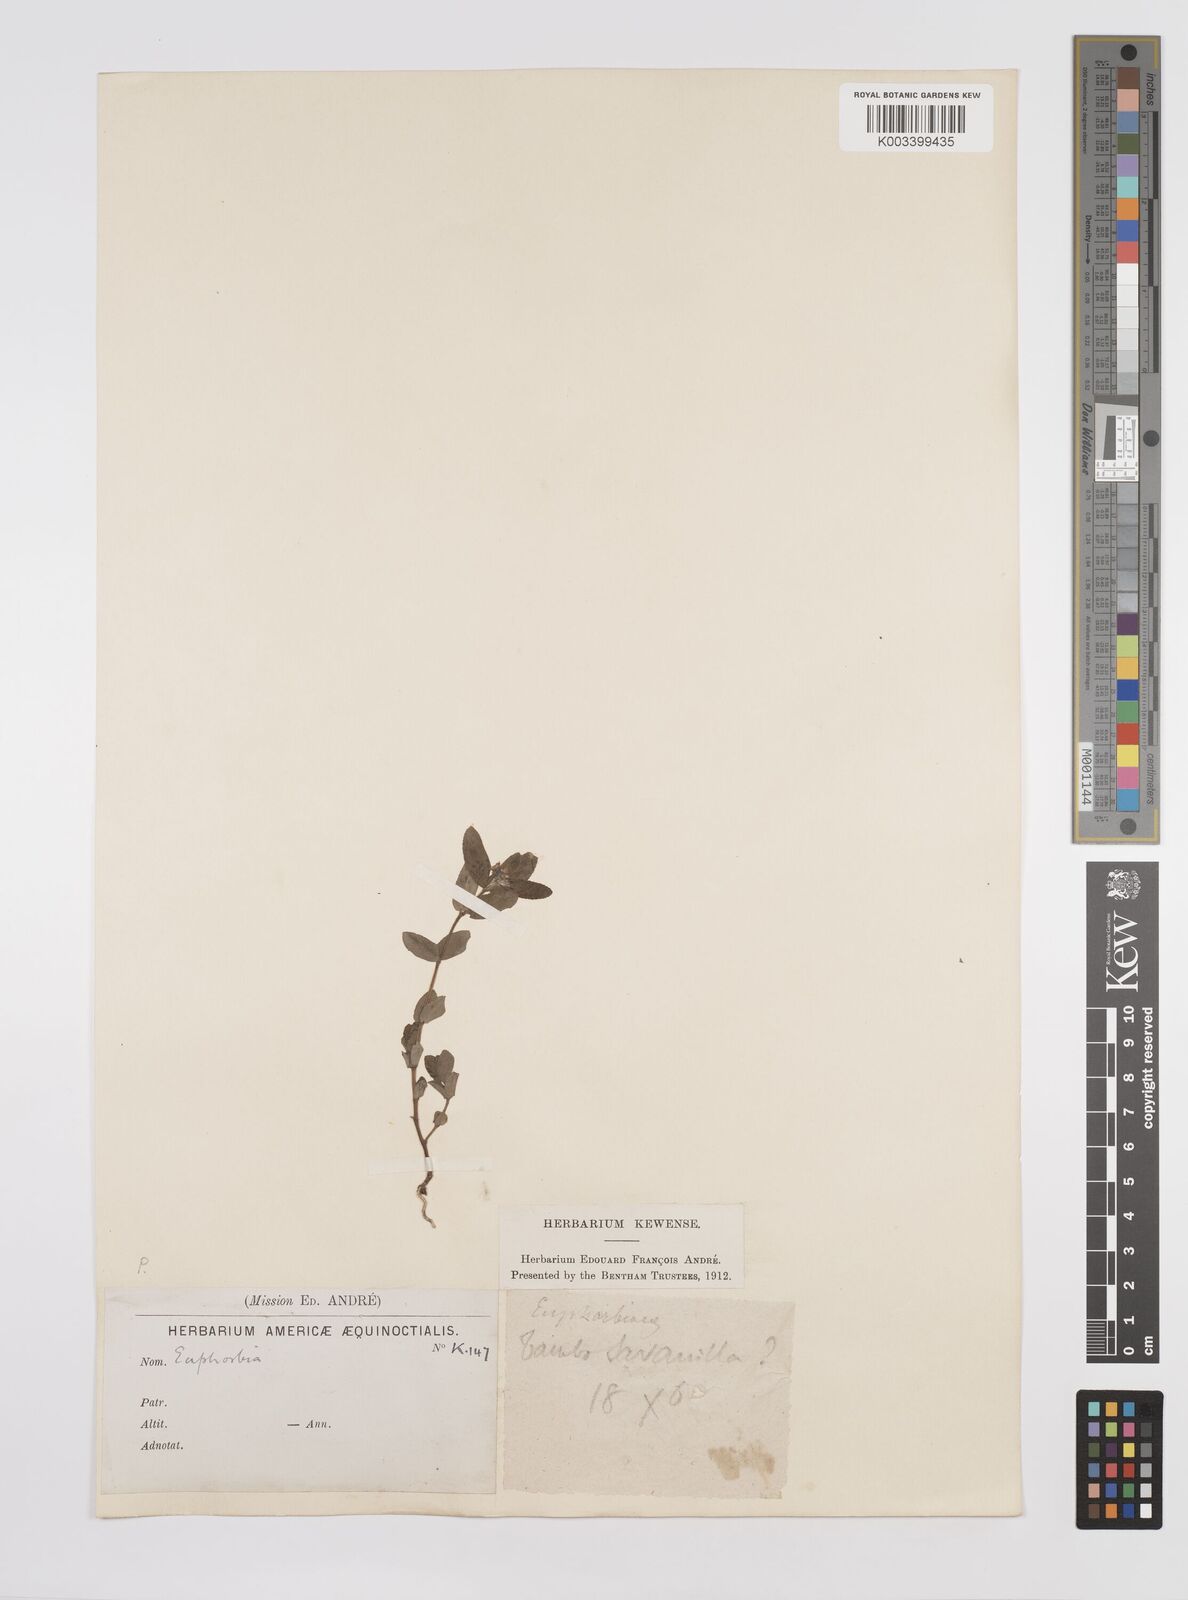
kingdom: Plantae
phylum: Tracheophyta
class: Magnoliopsida
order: Malpighiales
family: Euphorbiaceae
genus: Euphorbia
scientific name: Euphorbia
